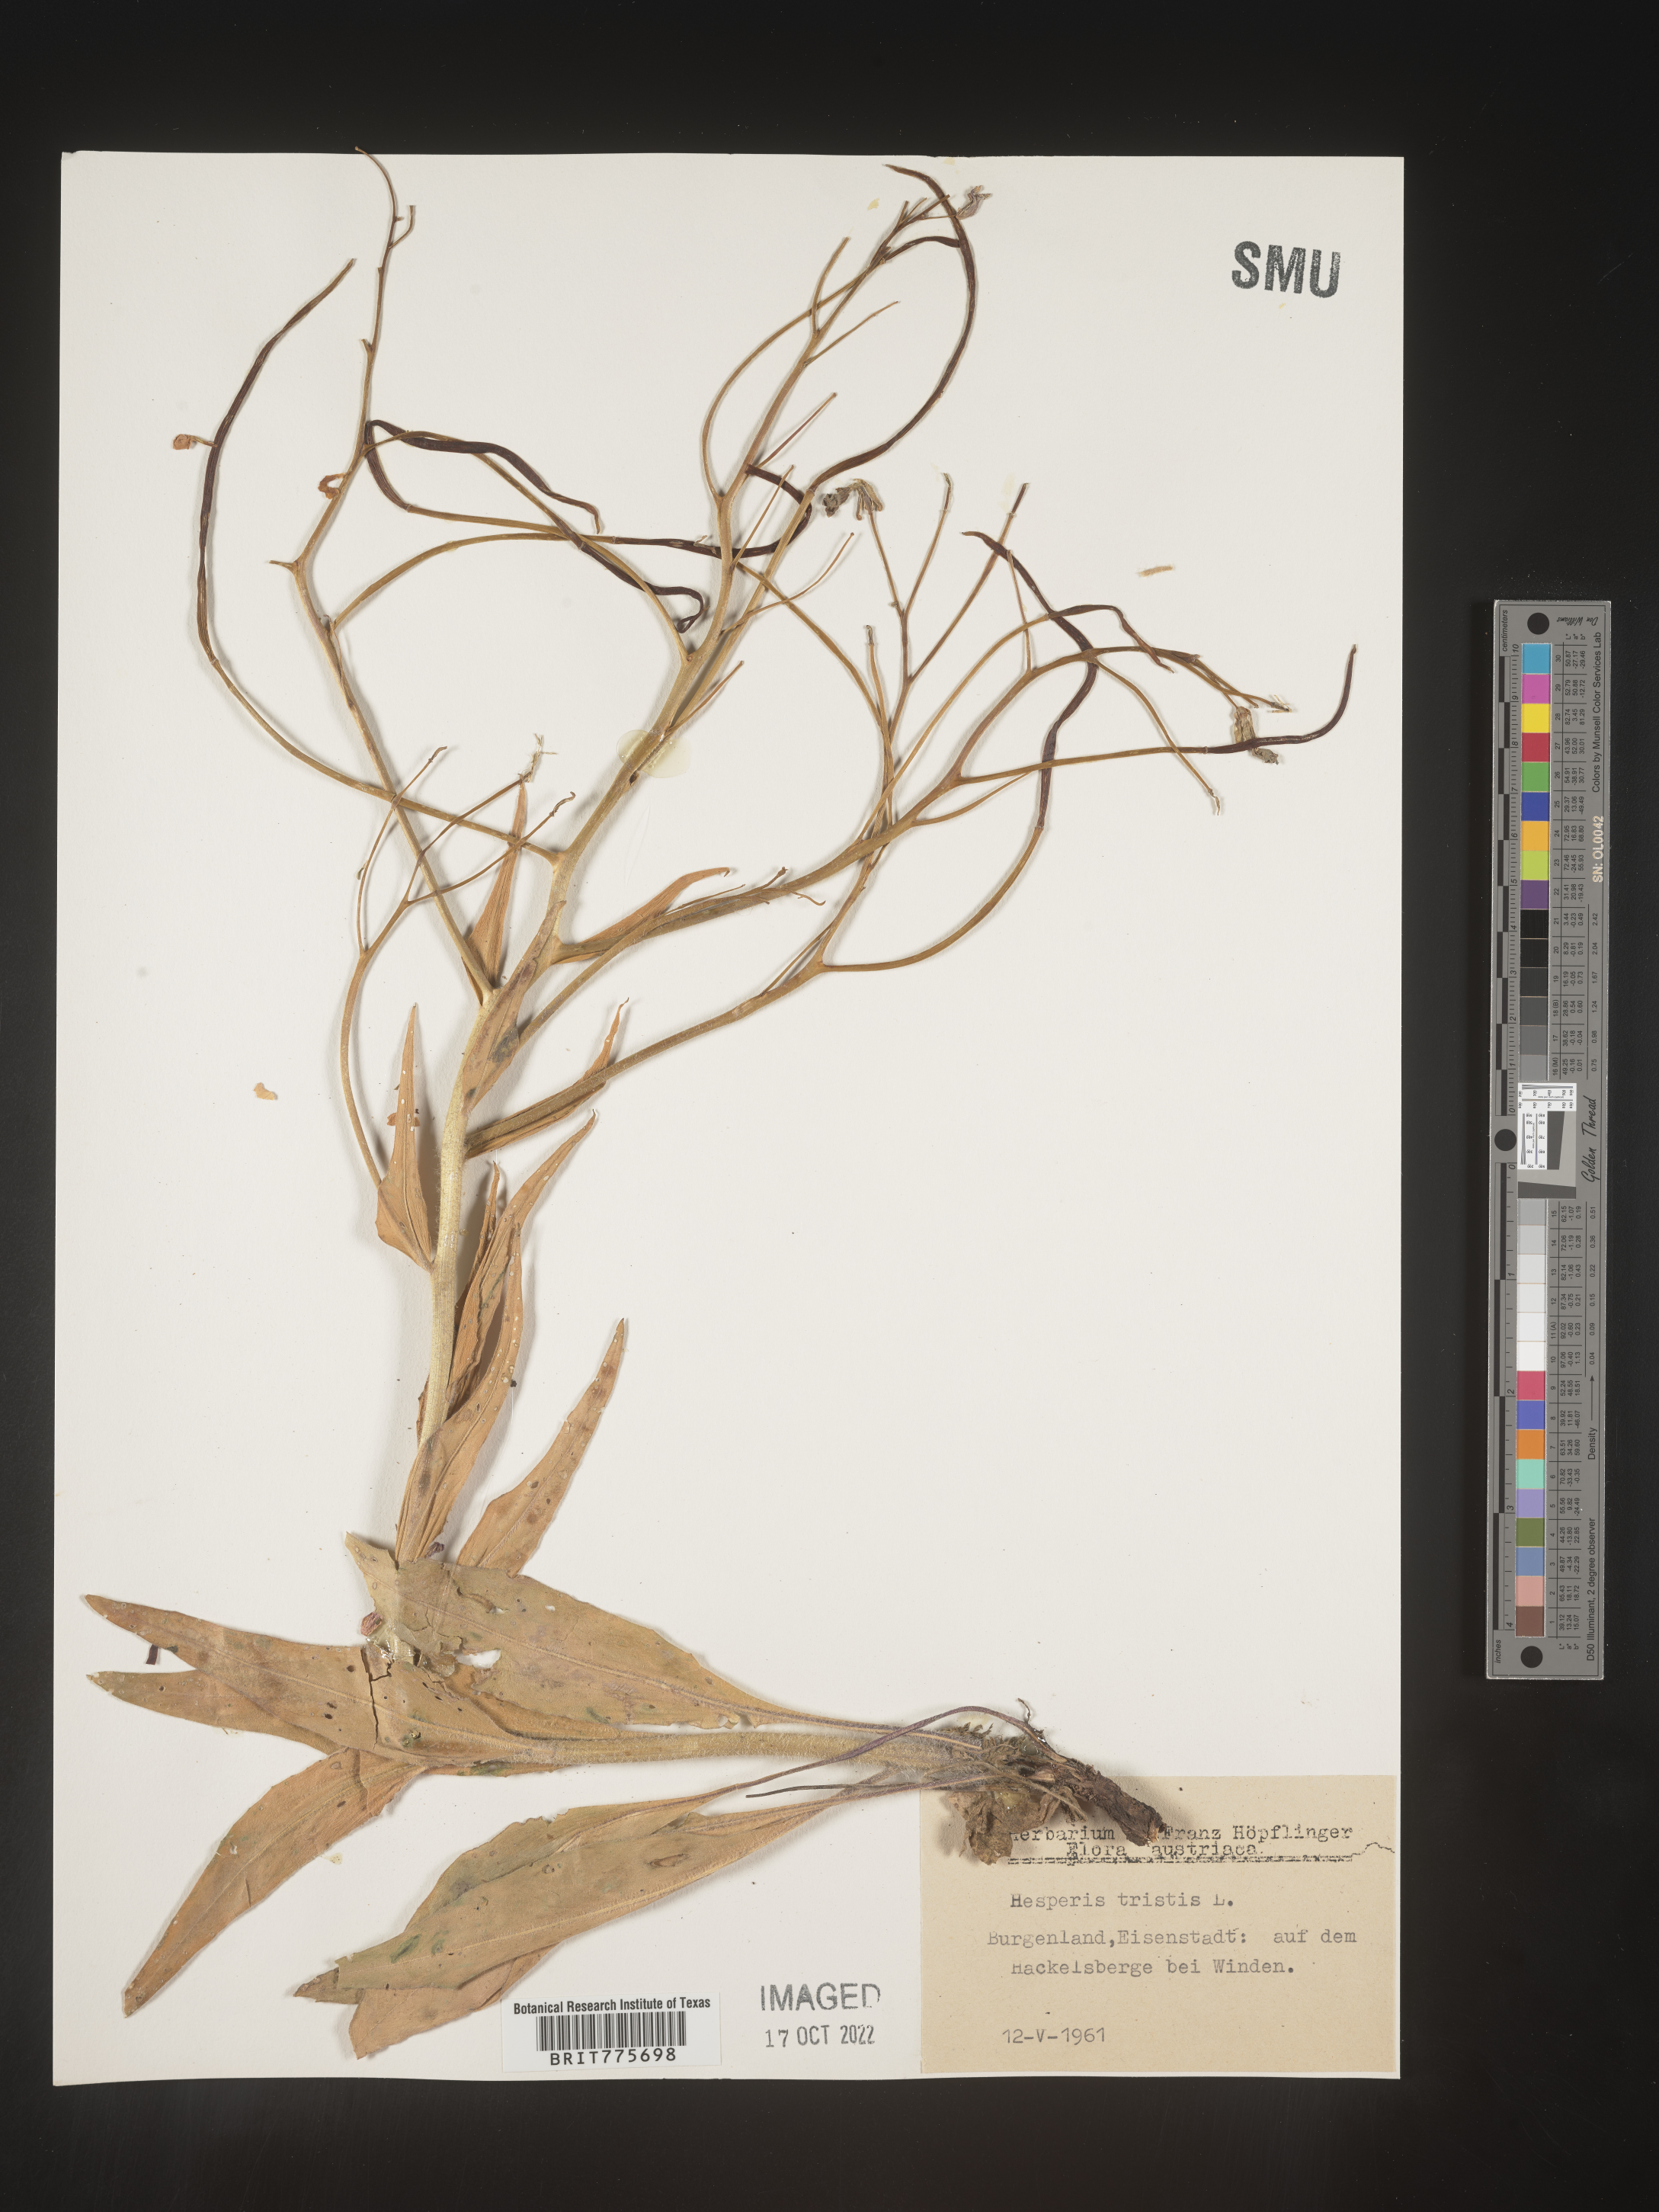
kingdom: Plantae
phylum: Tracheophyta
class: Magnoliopsida
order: Brassicales
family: Brassicaceae
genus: Hesperis
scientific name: Hesperis
